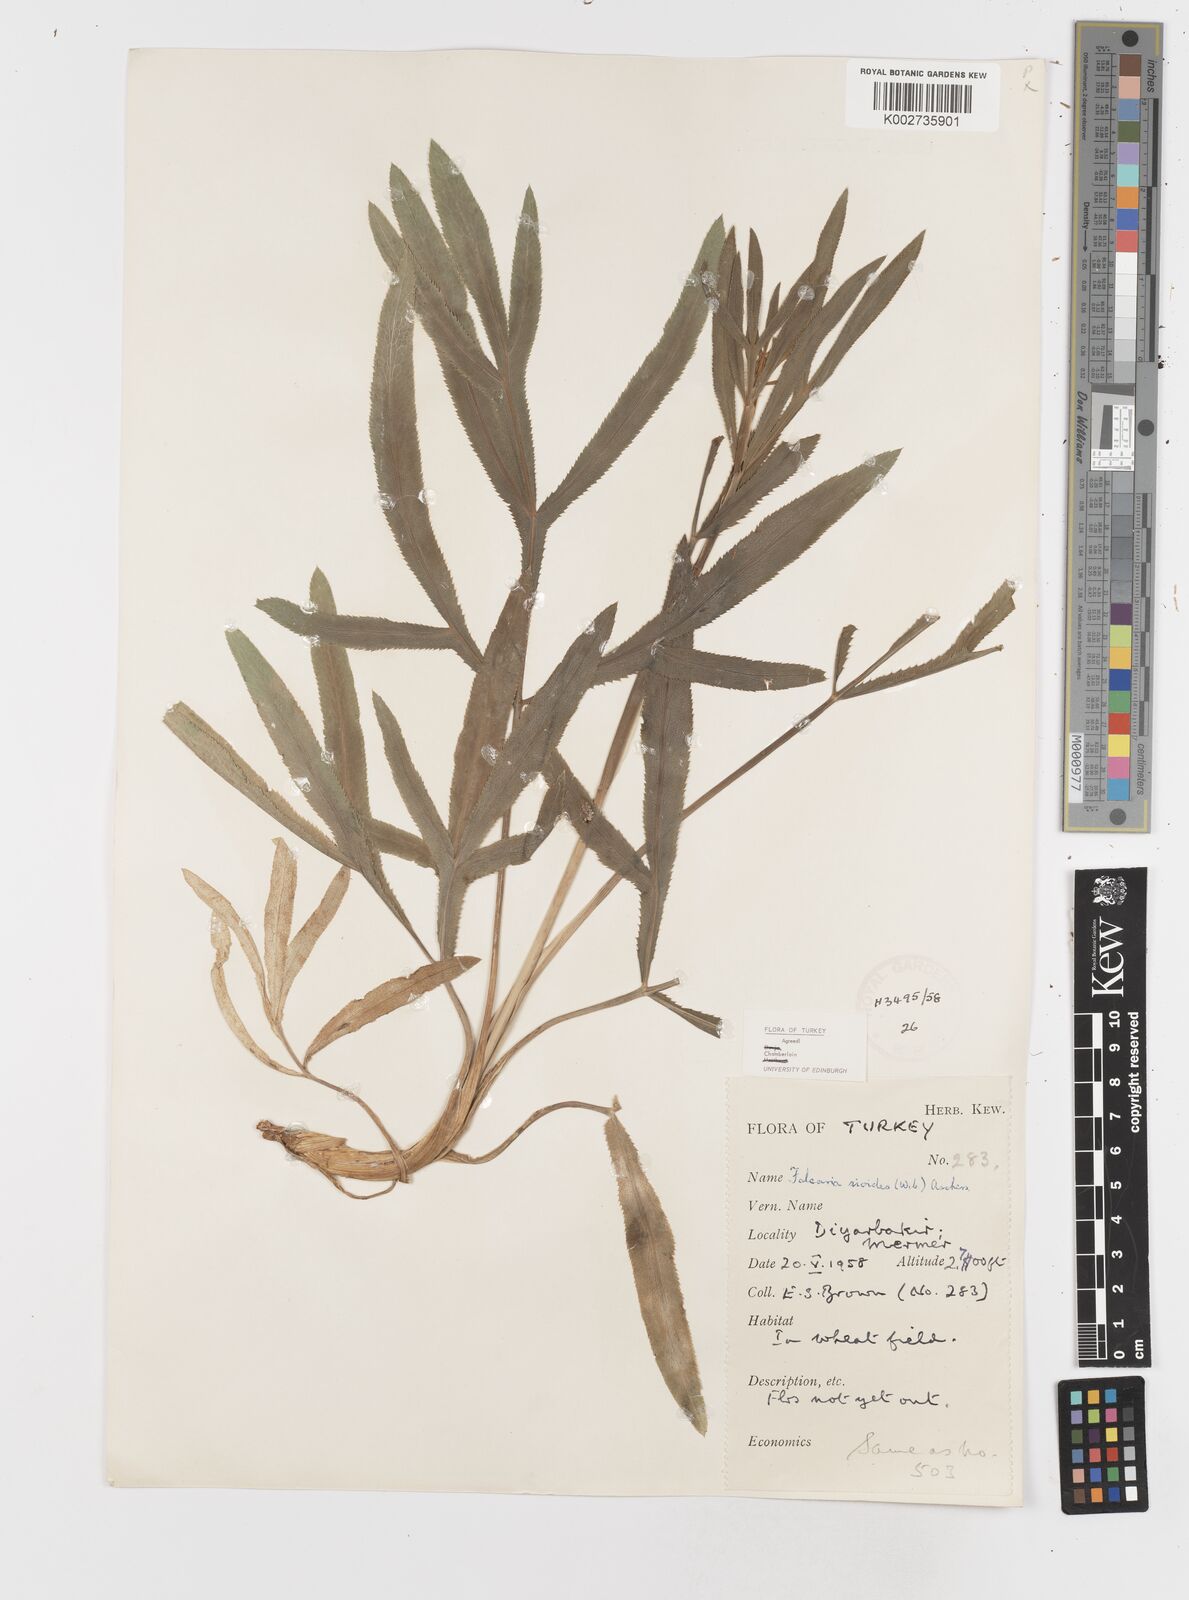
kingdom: Plantae
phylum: Tracheophyta
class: Magnoliopsida
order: Apiales
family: Apiaceae
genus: Falcaria
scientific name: Falcaria vulgaris
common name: Longleaf
